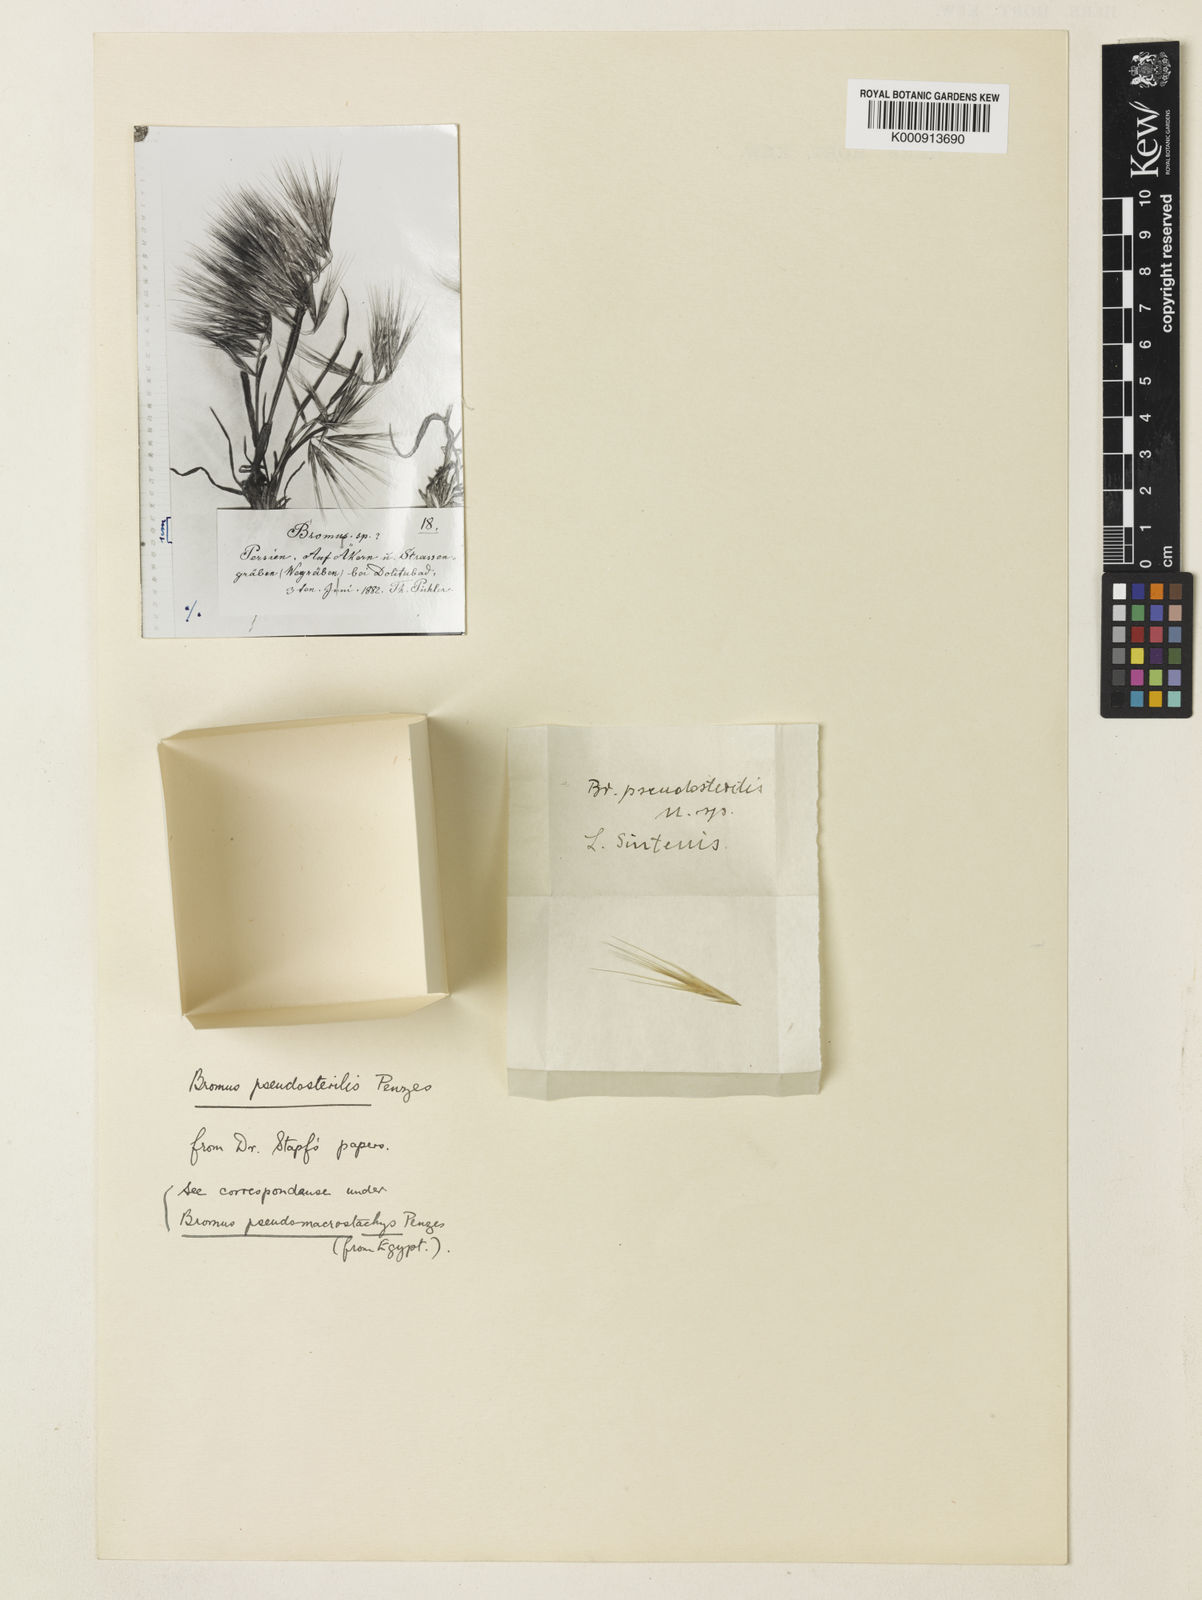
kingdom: Plantae
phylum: Tracheophyta
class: Liliopsida
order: Poales
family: Poaceae
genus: Bromus
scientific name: Bromus tectorum
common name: Cheatgrass
